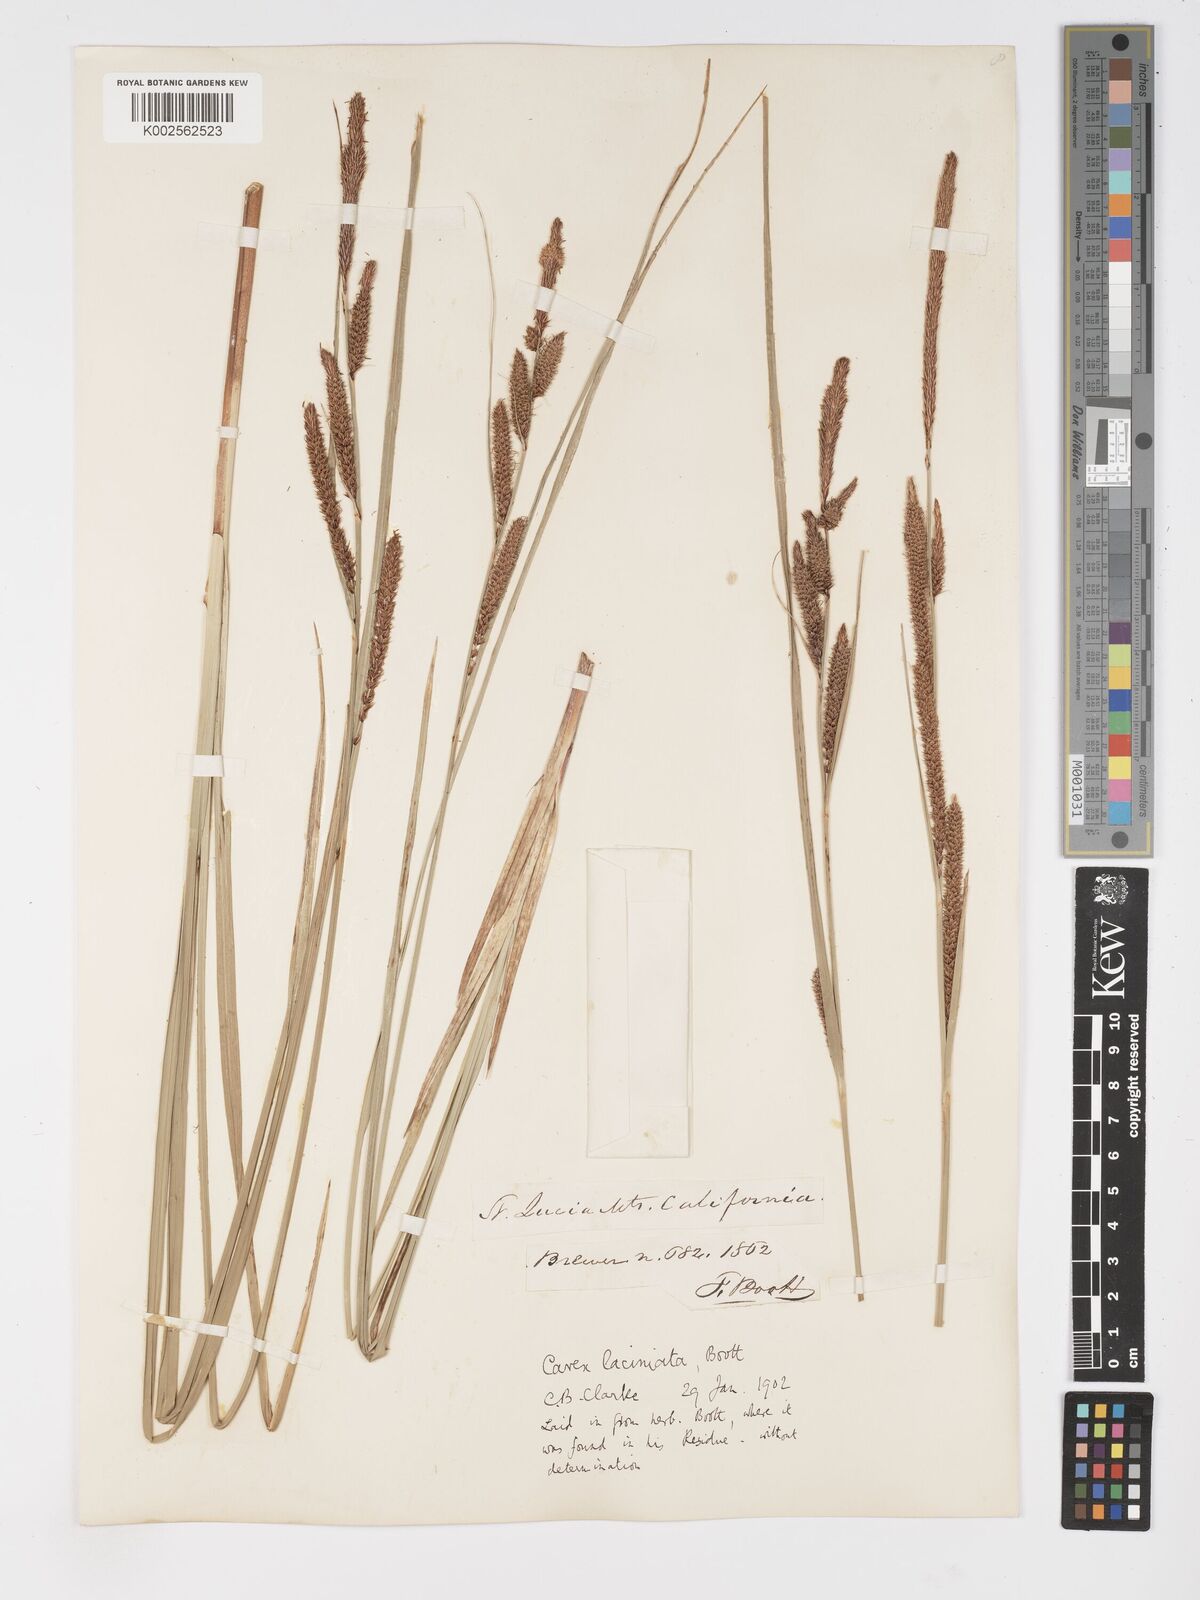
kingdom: Plantae
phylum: Tracheophyta
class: Liliopsida
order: Poales
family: Cyperaceae
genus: Carex
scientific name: Carex barbarae
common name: Santa barbara sedge
